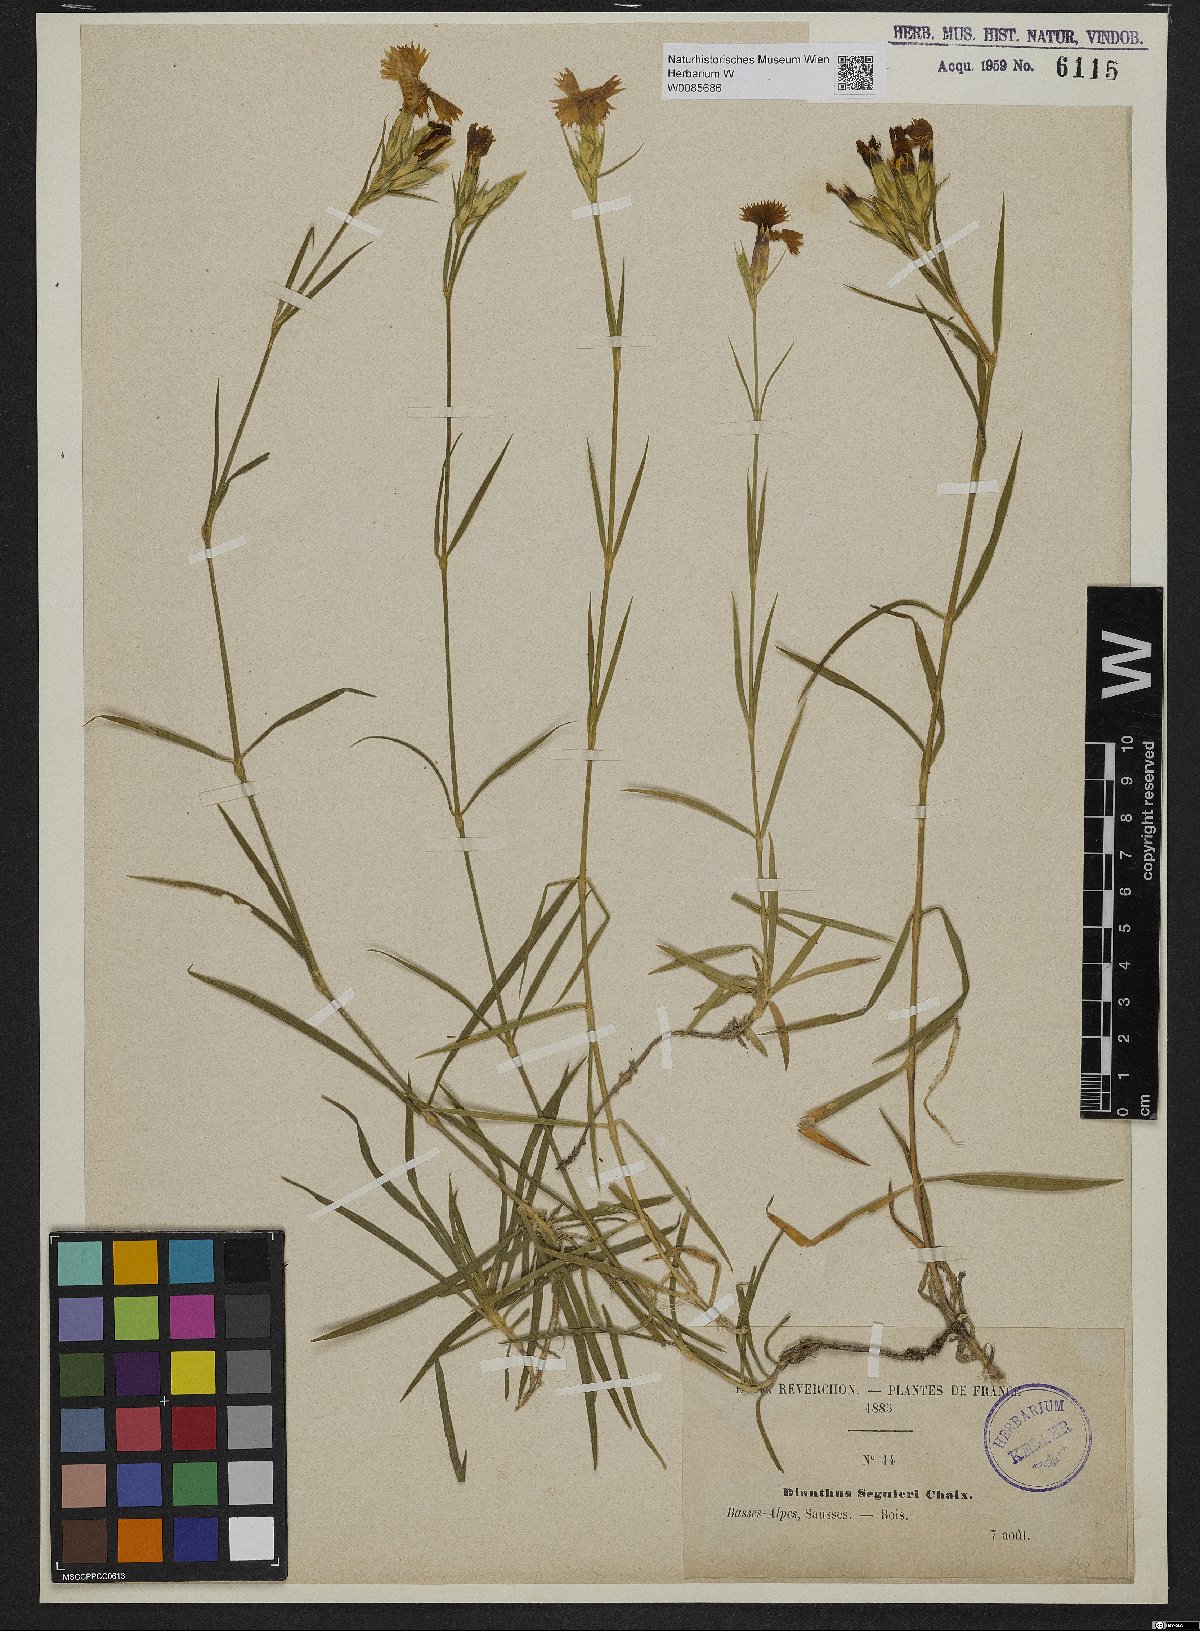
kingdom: Plantae
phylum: Tracheophyta
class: Magnoliopsida
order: Caryophyllales
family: Caryophyllaceae
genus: Dianthus
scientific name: Dianthus seguieri
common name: Ragged pink
